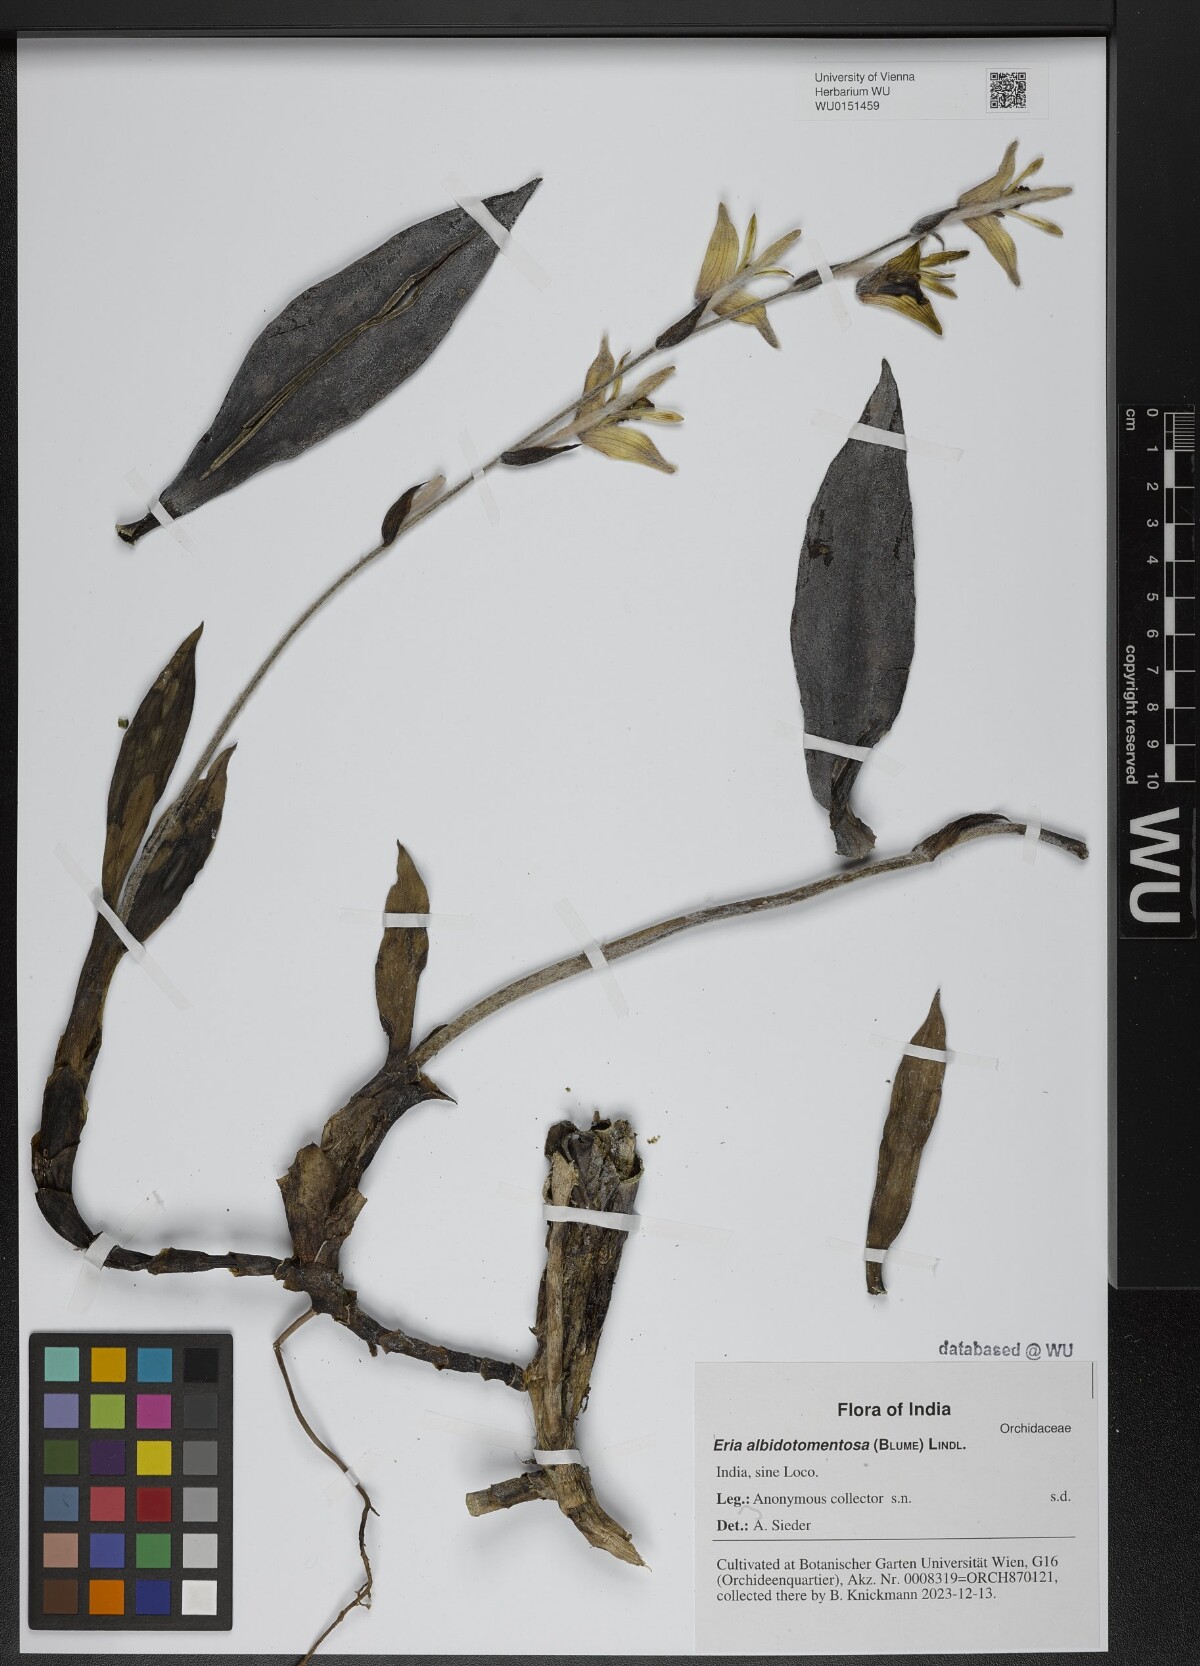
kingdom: Plantae
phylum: Tracheophyta
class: Liliopsida
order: Asparagales
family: Orchidaceae
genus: Dendrolirium
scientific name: Dendrolirium lasiopetalum
